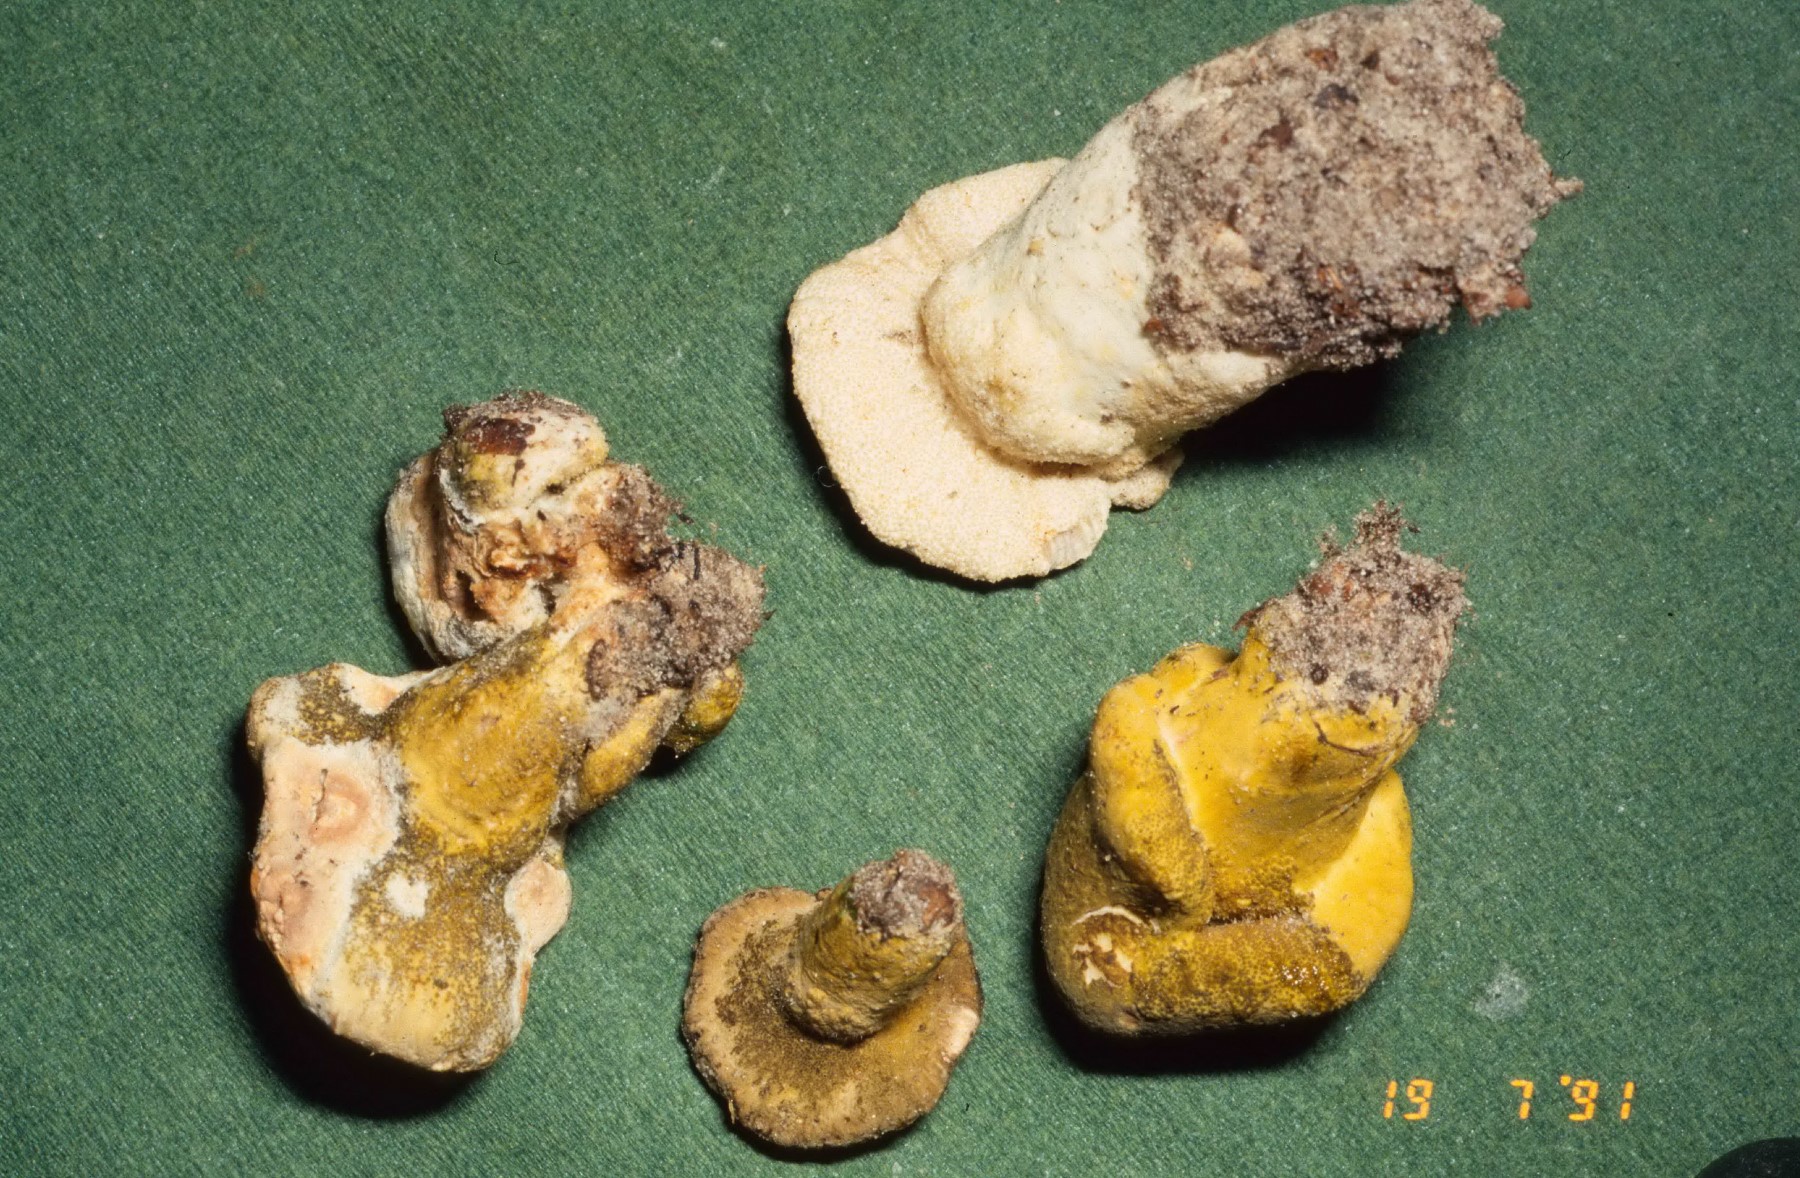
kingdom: Fungi
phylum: Ascomycota
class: Sordariomycetes
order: Hypocreales
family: Hypocreaceae
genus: Hypomyces
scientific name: Hypomyces luteovirens
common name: gulgrøn snylteskorpe
